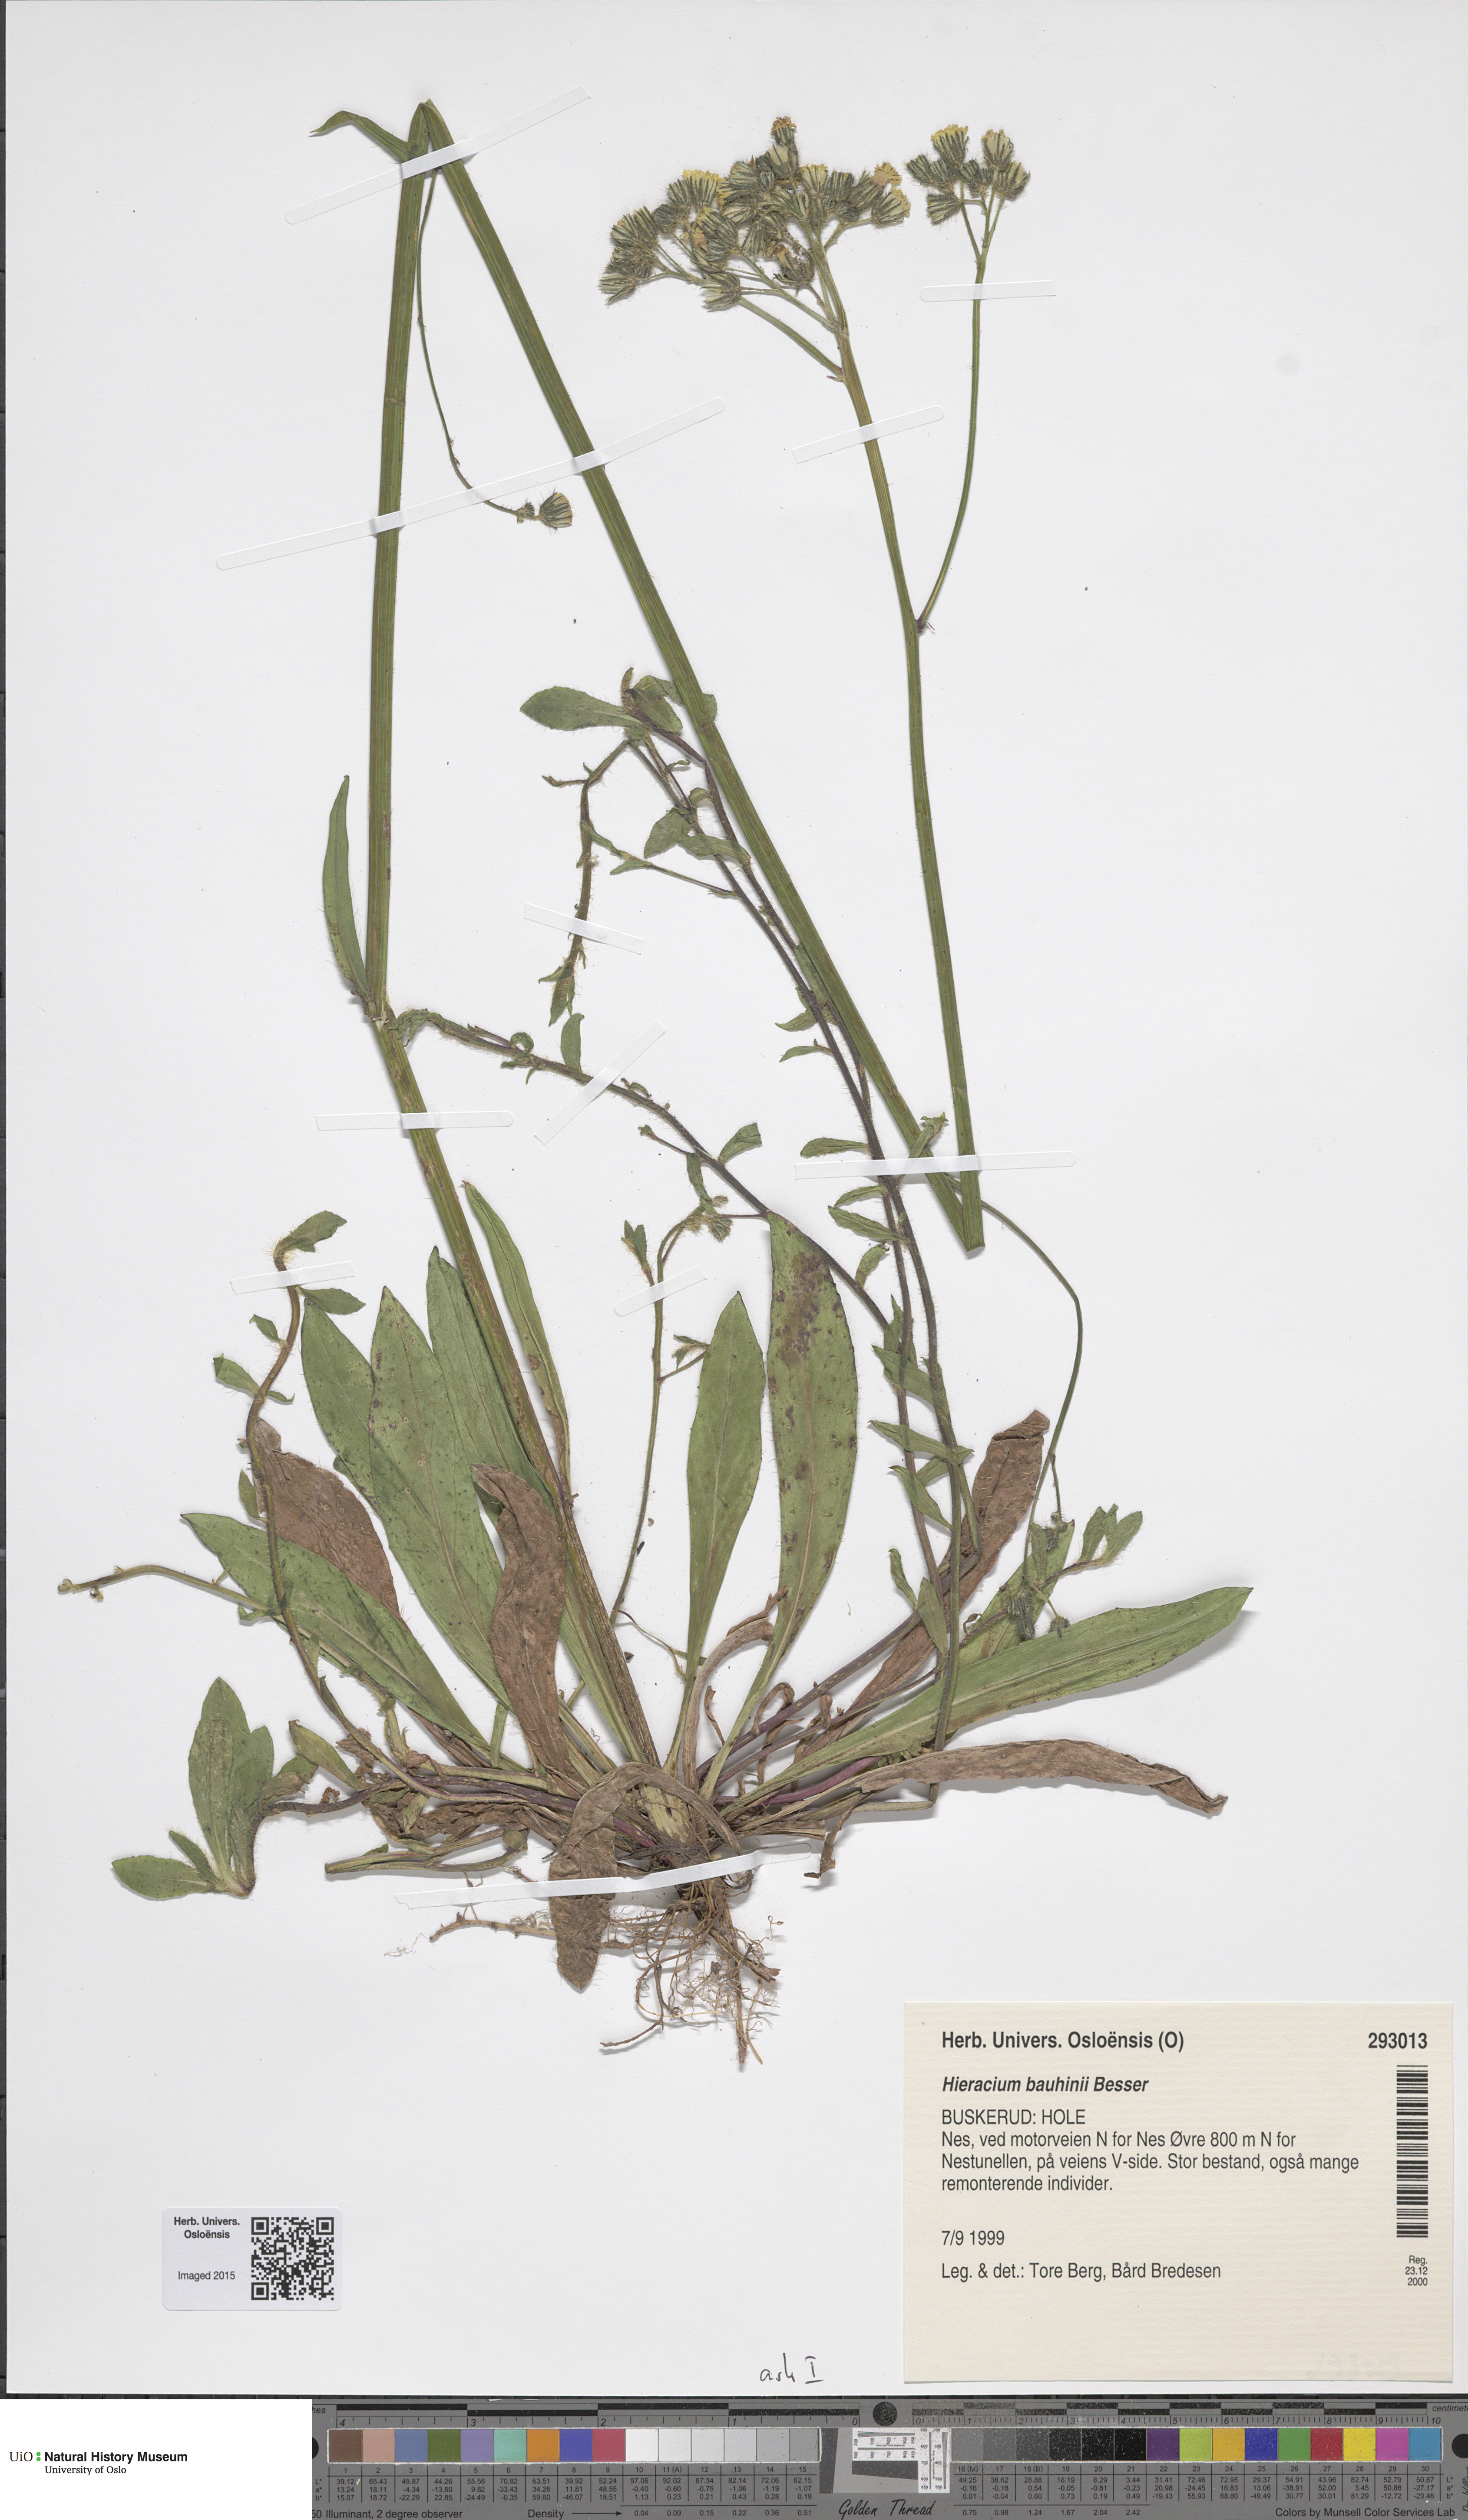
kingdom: Plantae
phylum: Tracheophyta
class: Magnoliopsida
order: Asterales
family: Asteraceae
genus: Pilosella
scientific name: Pilosella bauhini
